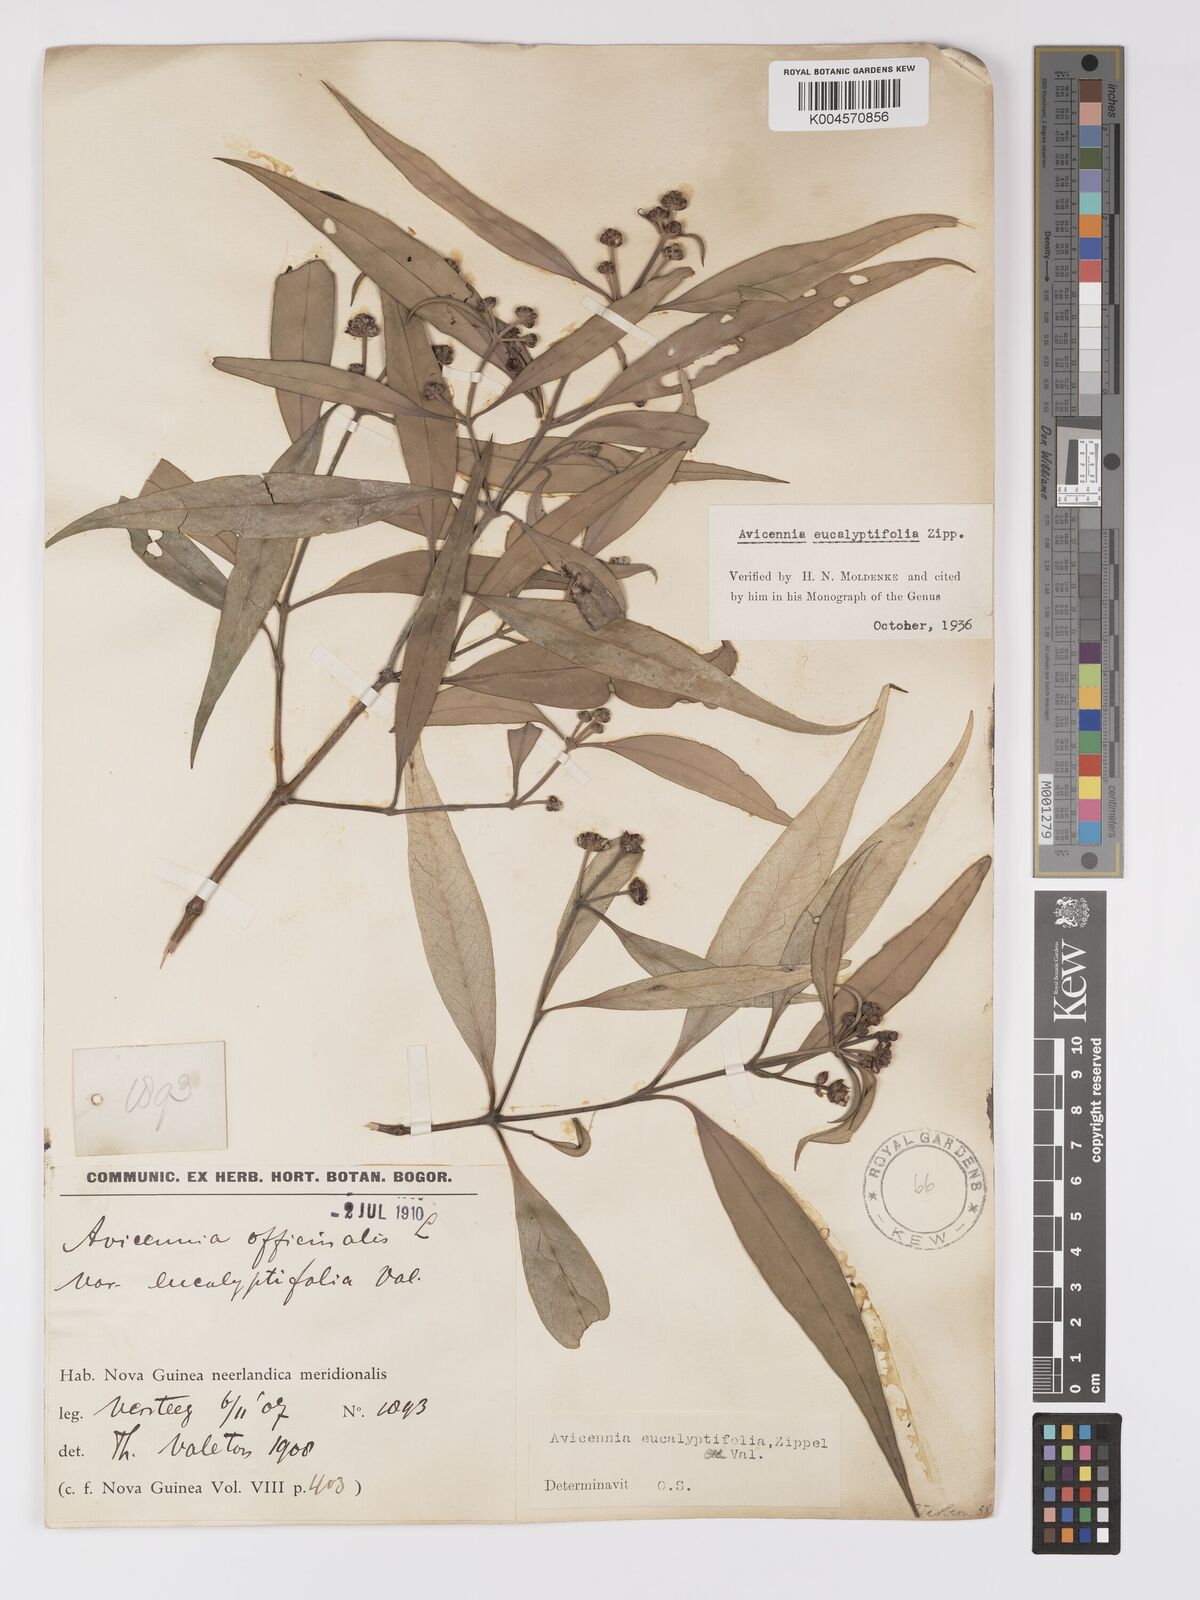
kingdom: Plantae
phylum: Tracheophyta
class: Magnoliopsida
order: Lamiales
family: Acanthaceae
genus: Avicennia
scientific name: Avicennia marina
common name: Gray mangrove
